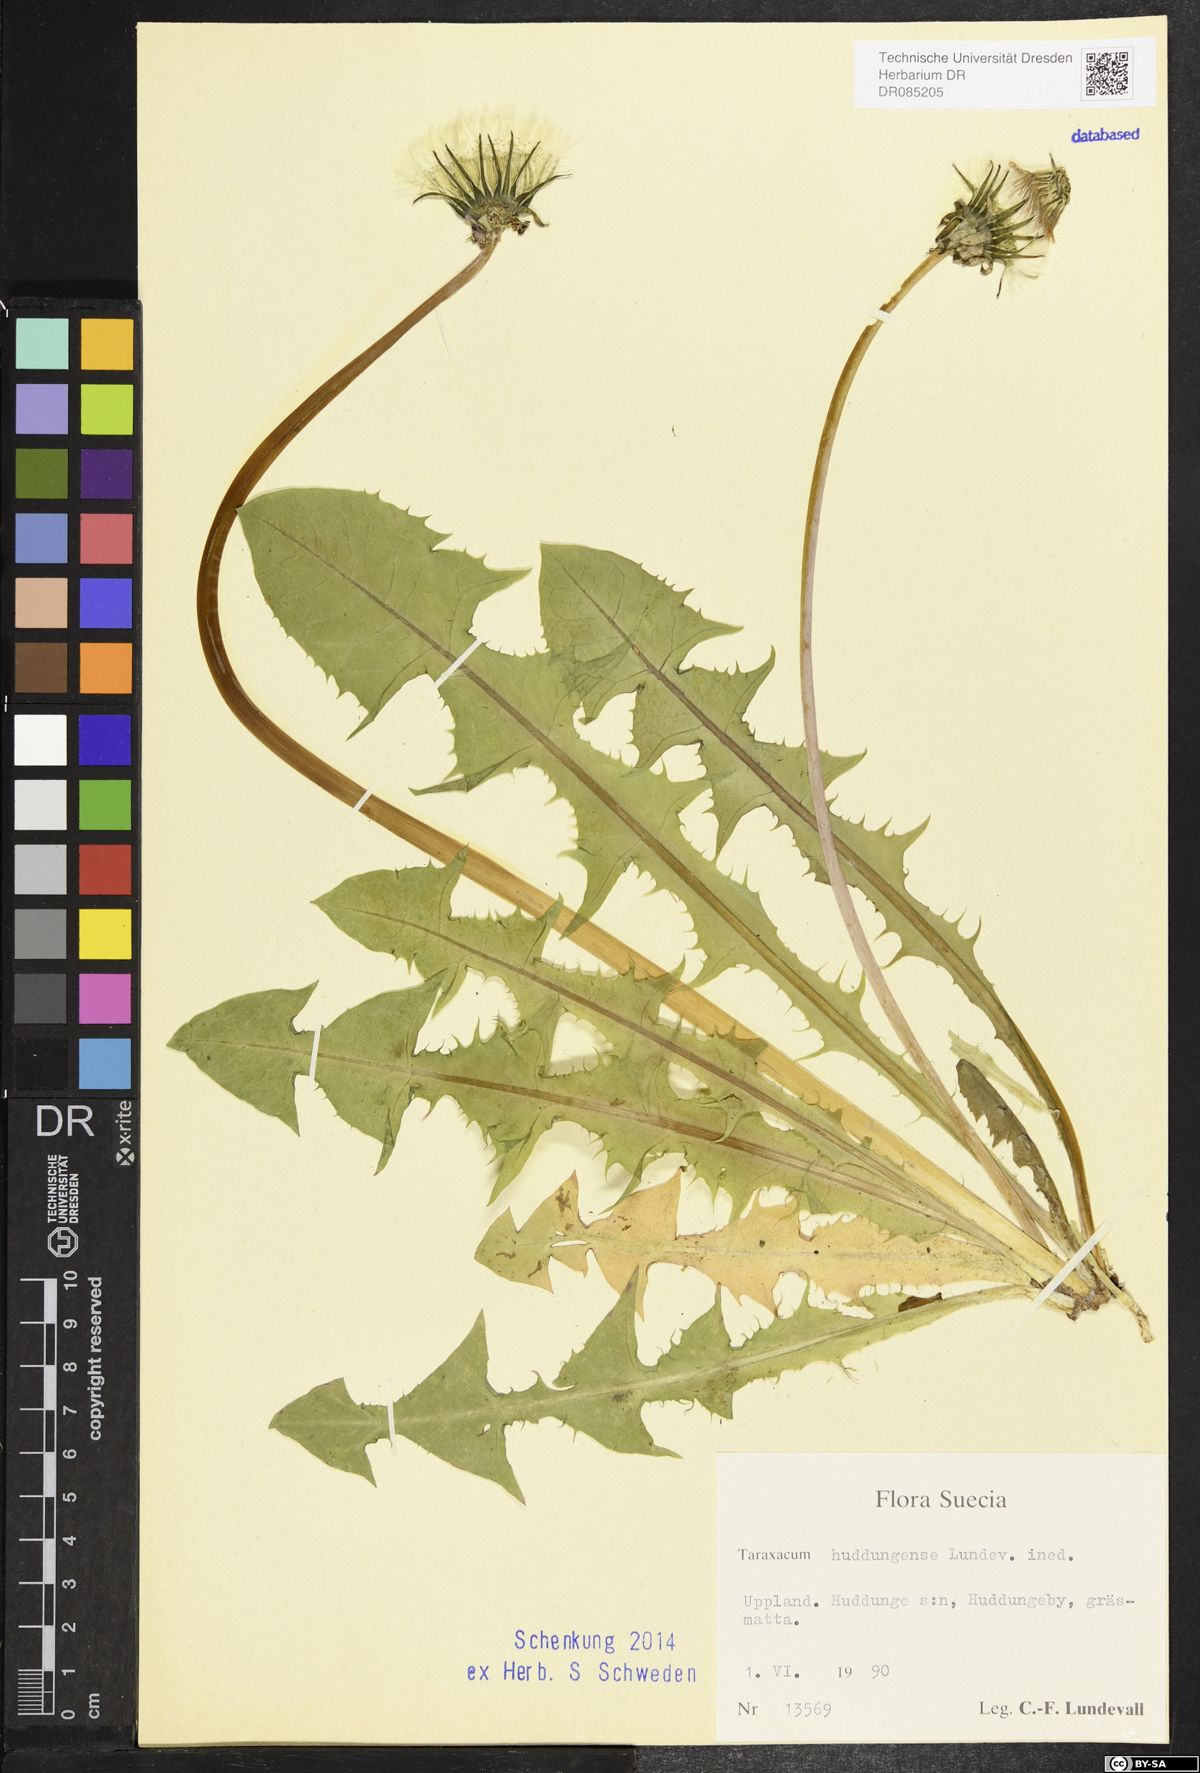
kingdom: Plantae
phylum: Tracheophyta
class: Magnoliopsida
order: Asterales
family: Asteraceae
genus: Taraxacum
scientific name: Taraxacum huddungense
